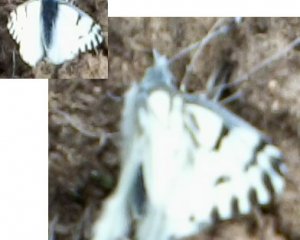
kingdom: Animalia
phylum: Arthropoda
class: Insecta
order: Lepidoptera
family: Pieridae
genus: Pontia
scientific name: Pontia sisymbrii
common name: Spring White
